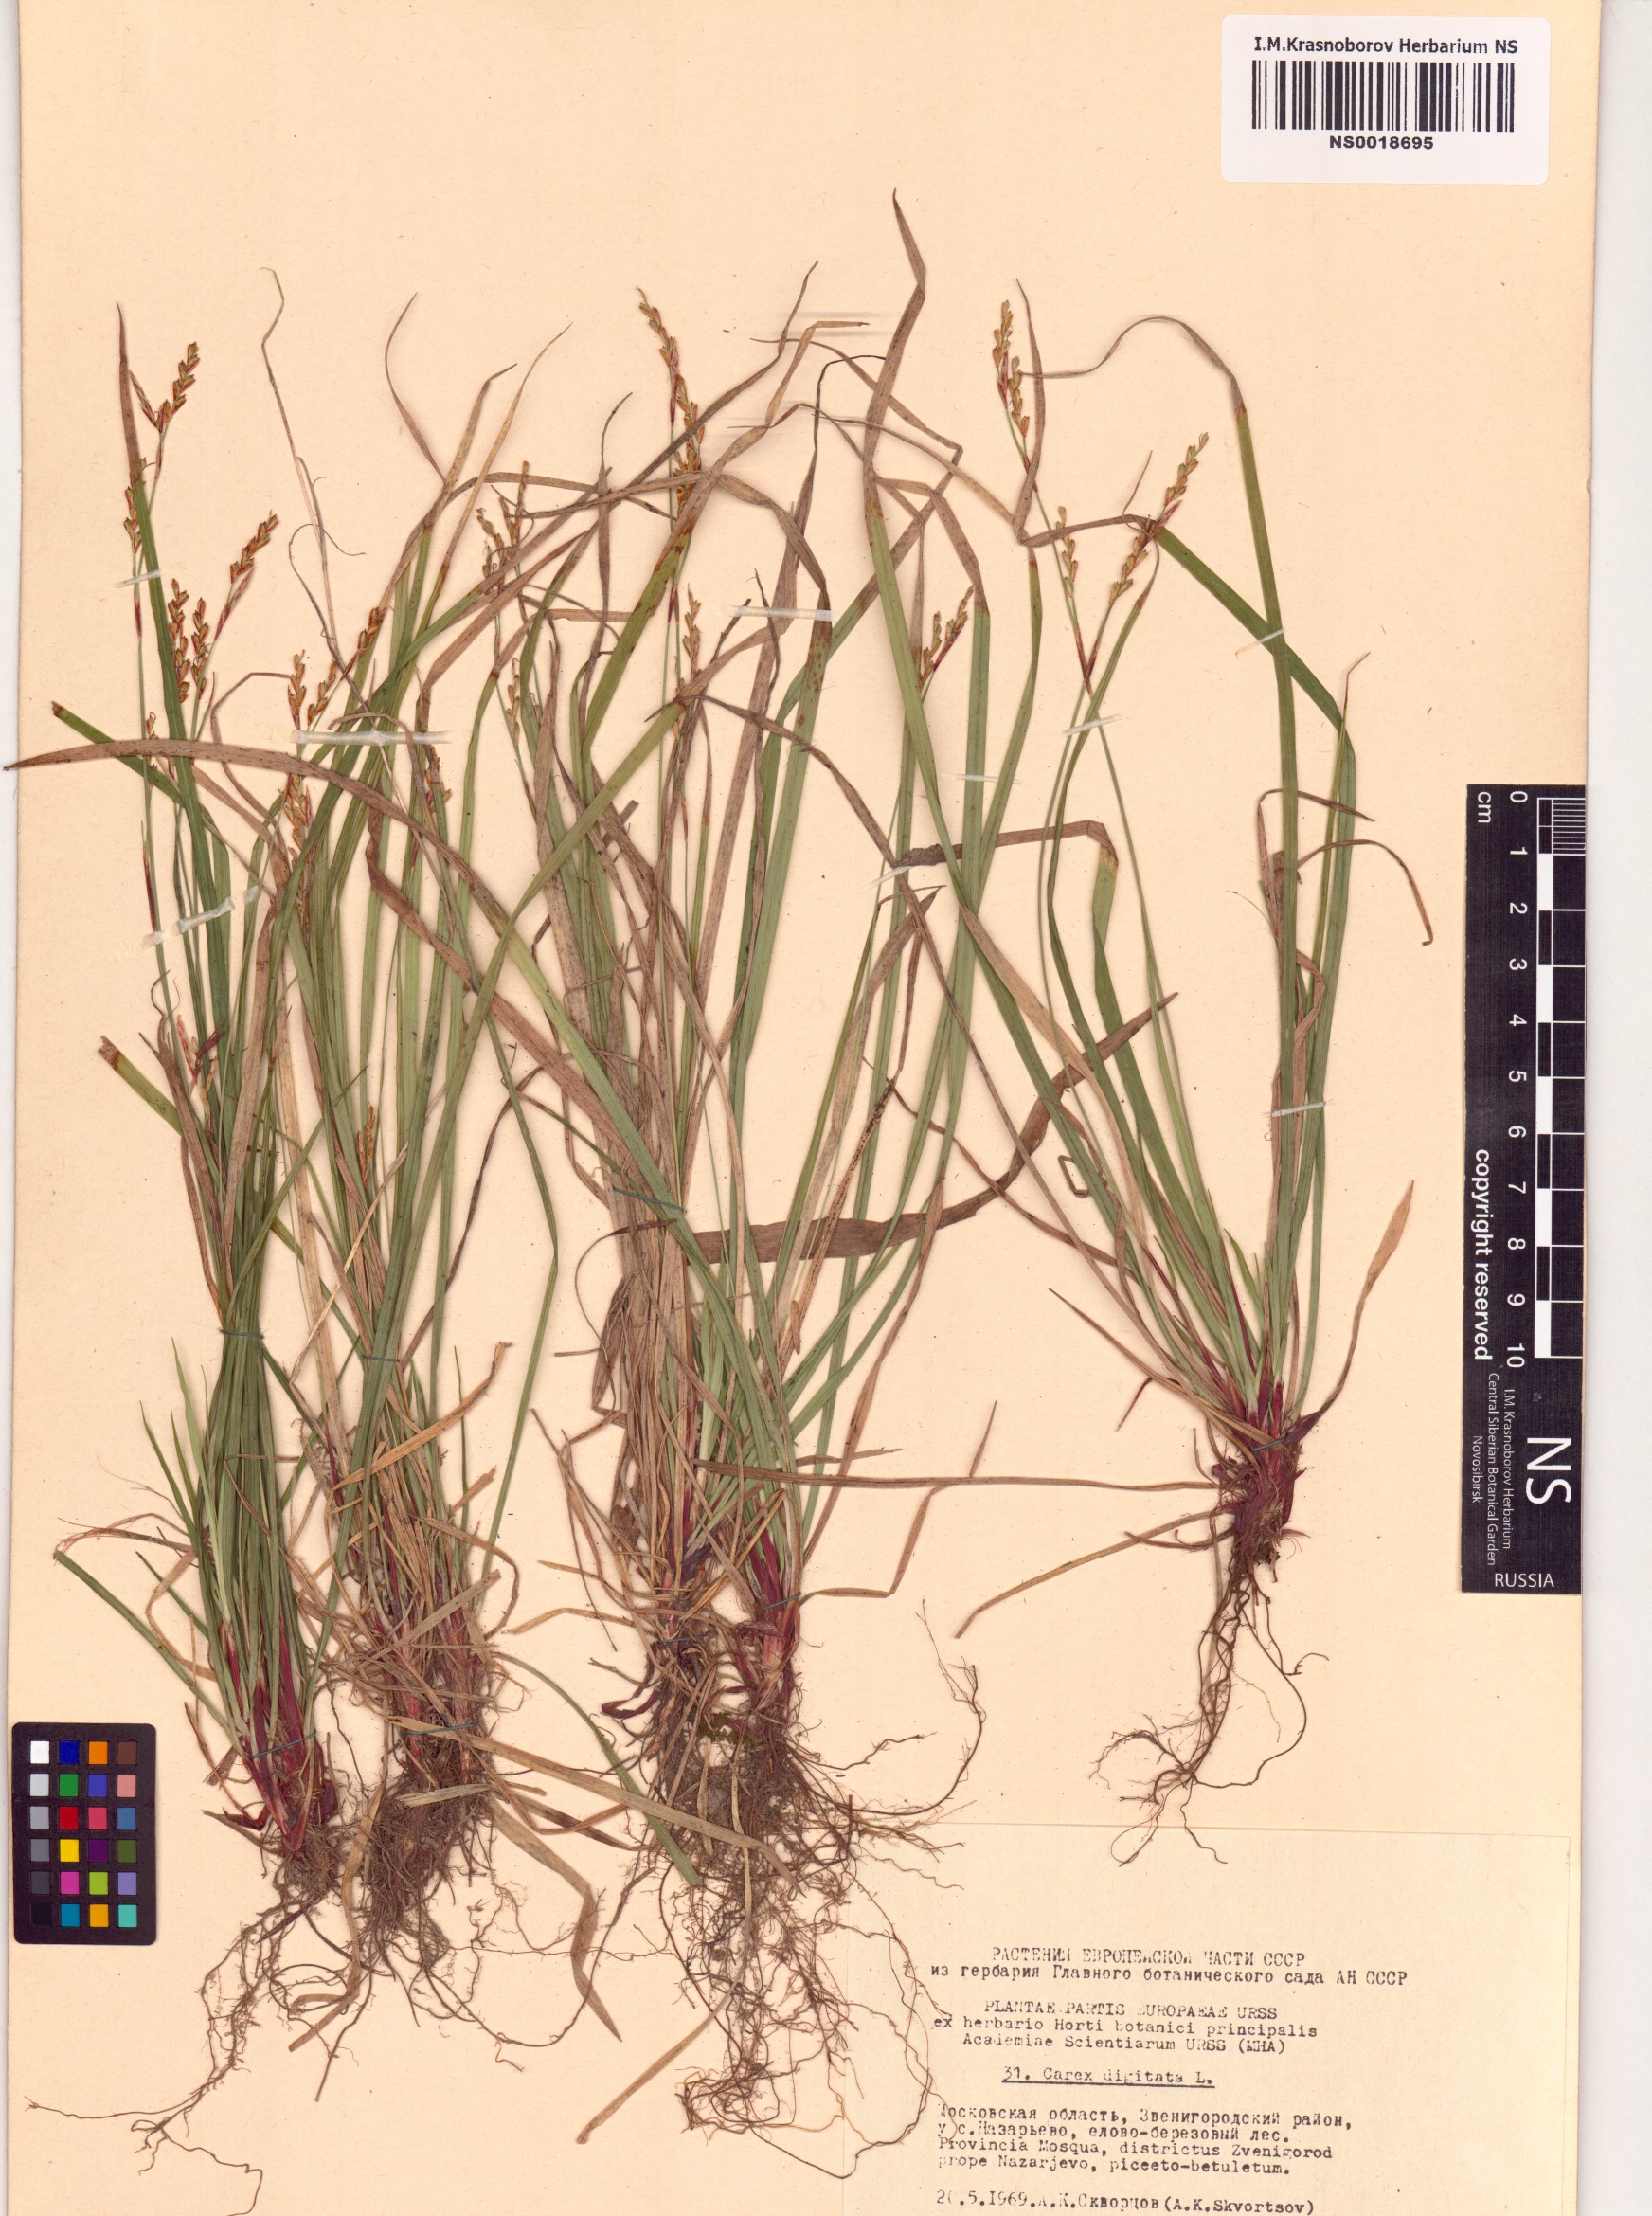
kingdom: Plantae
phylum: Tracheophyta
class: Liliopsida
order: Poales
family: Cyperaceae
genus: Carex
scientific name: Carex digitata
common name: Fingered sedge
